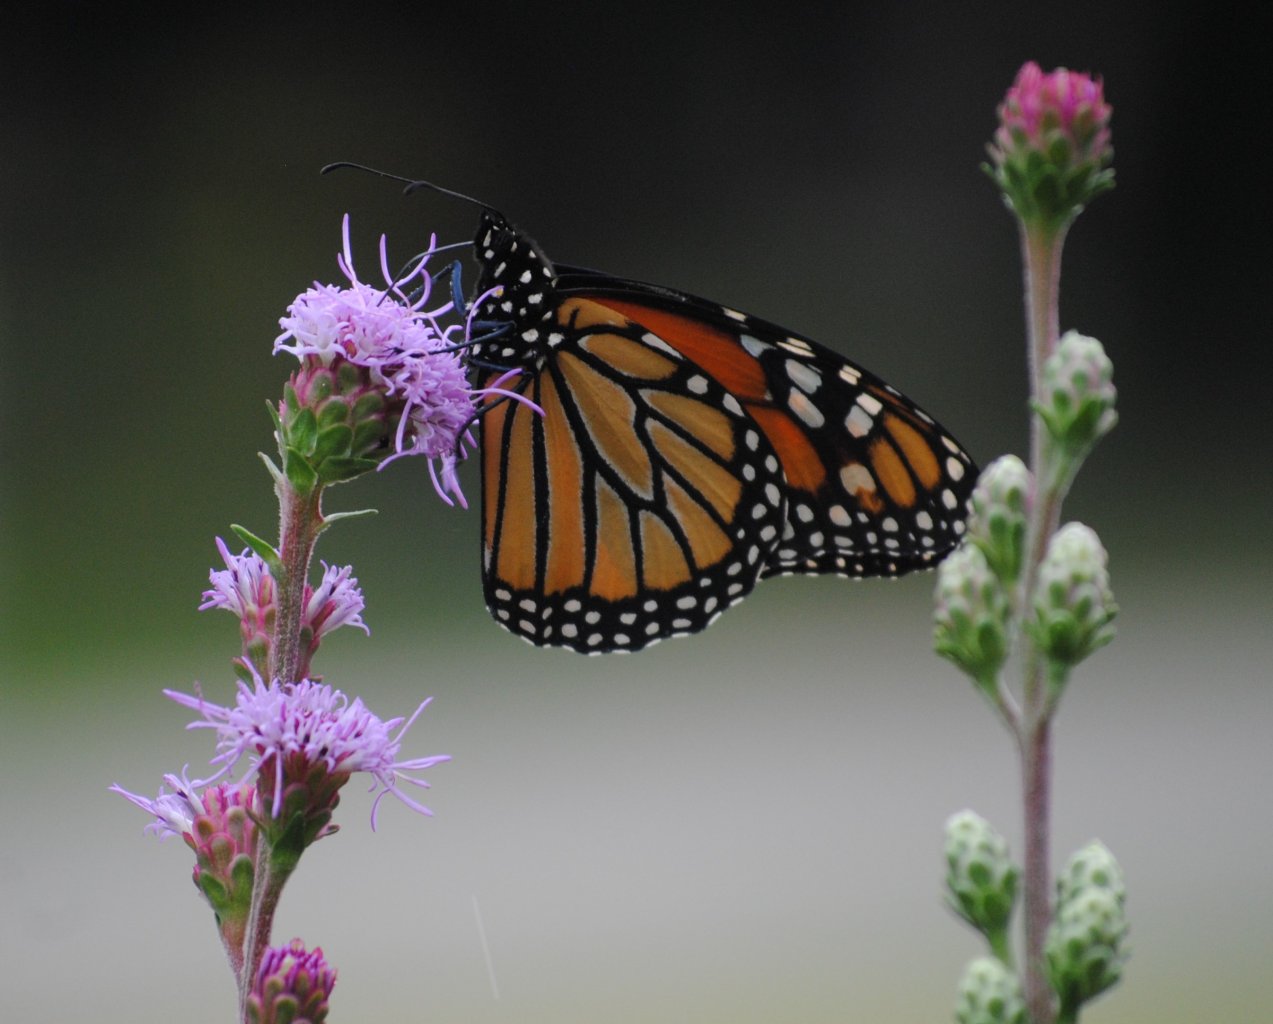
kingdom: Animalia
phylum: Arthropoda
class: Insecta
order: Lepidoptera
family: Nymphalidae
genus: Danaus
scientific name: Danaus plexippus
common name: Monarch
